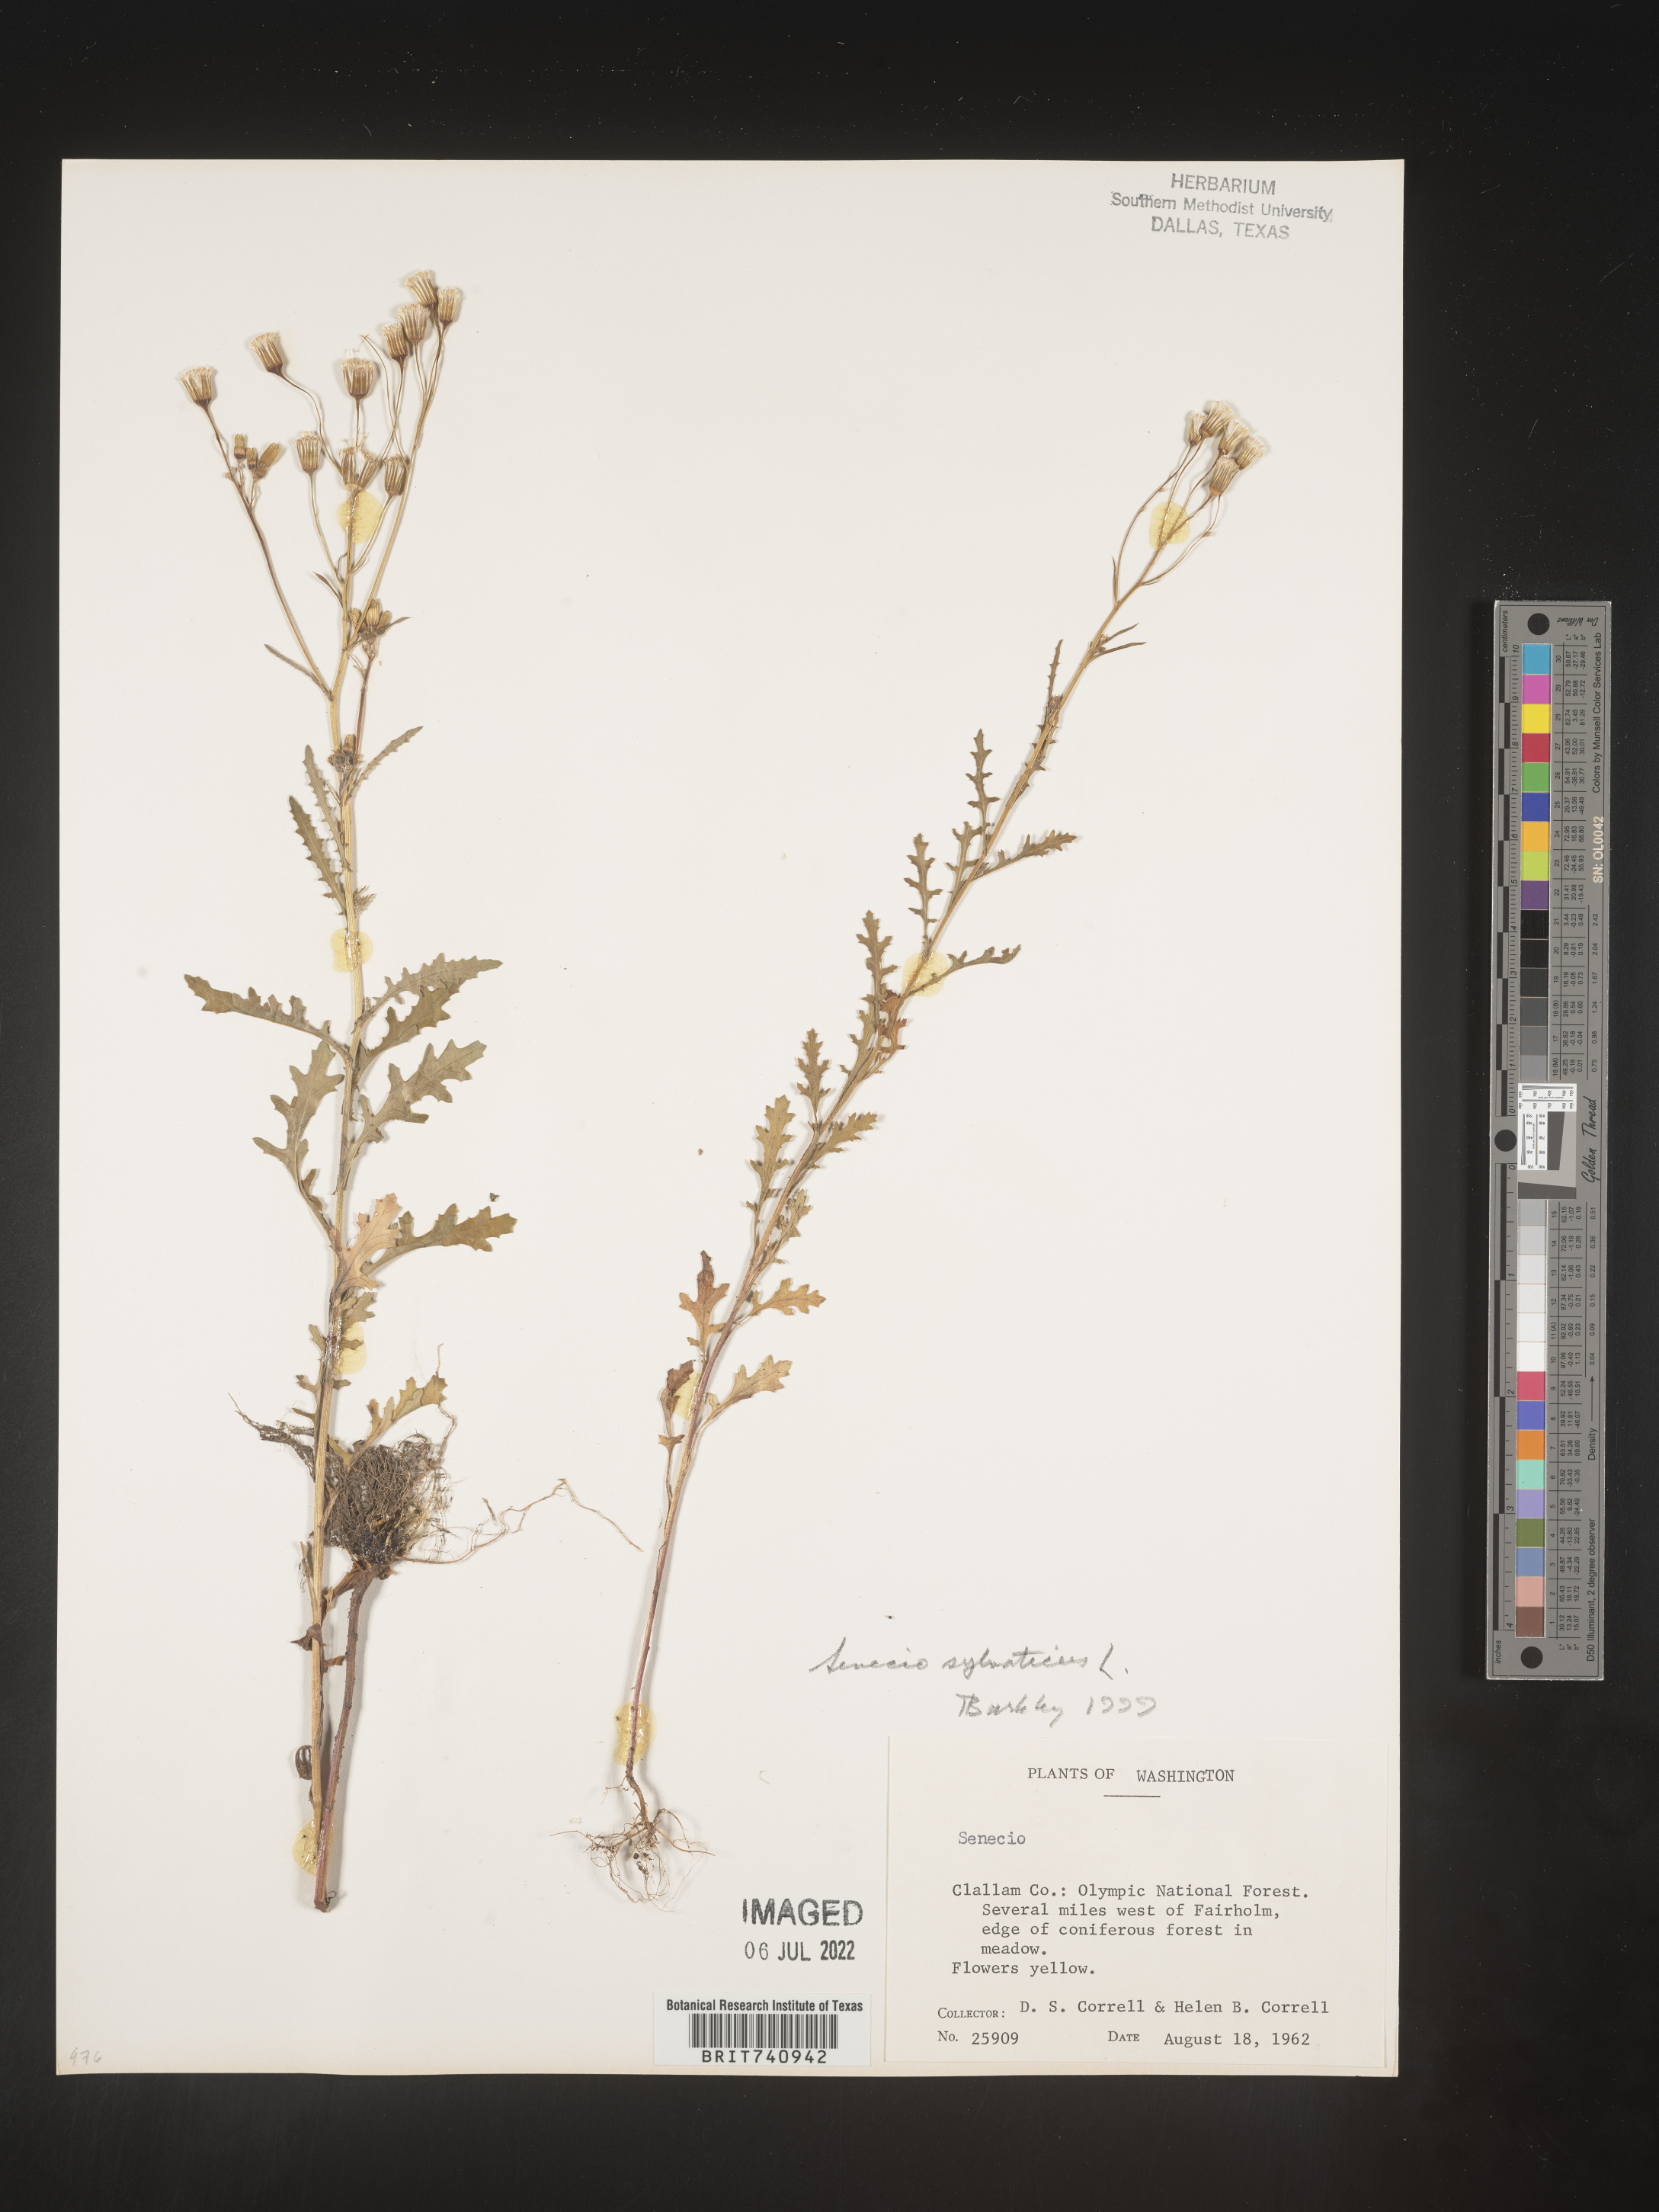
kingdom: Plantae
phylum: Tracheophyta
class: Magnoliopsida
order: Asterales
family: Asteraceae
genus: Senecio
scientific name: Senecio sylvaticus
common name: Woodland ragwort
